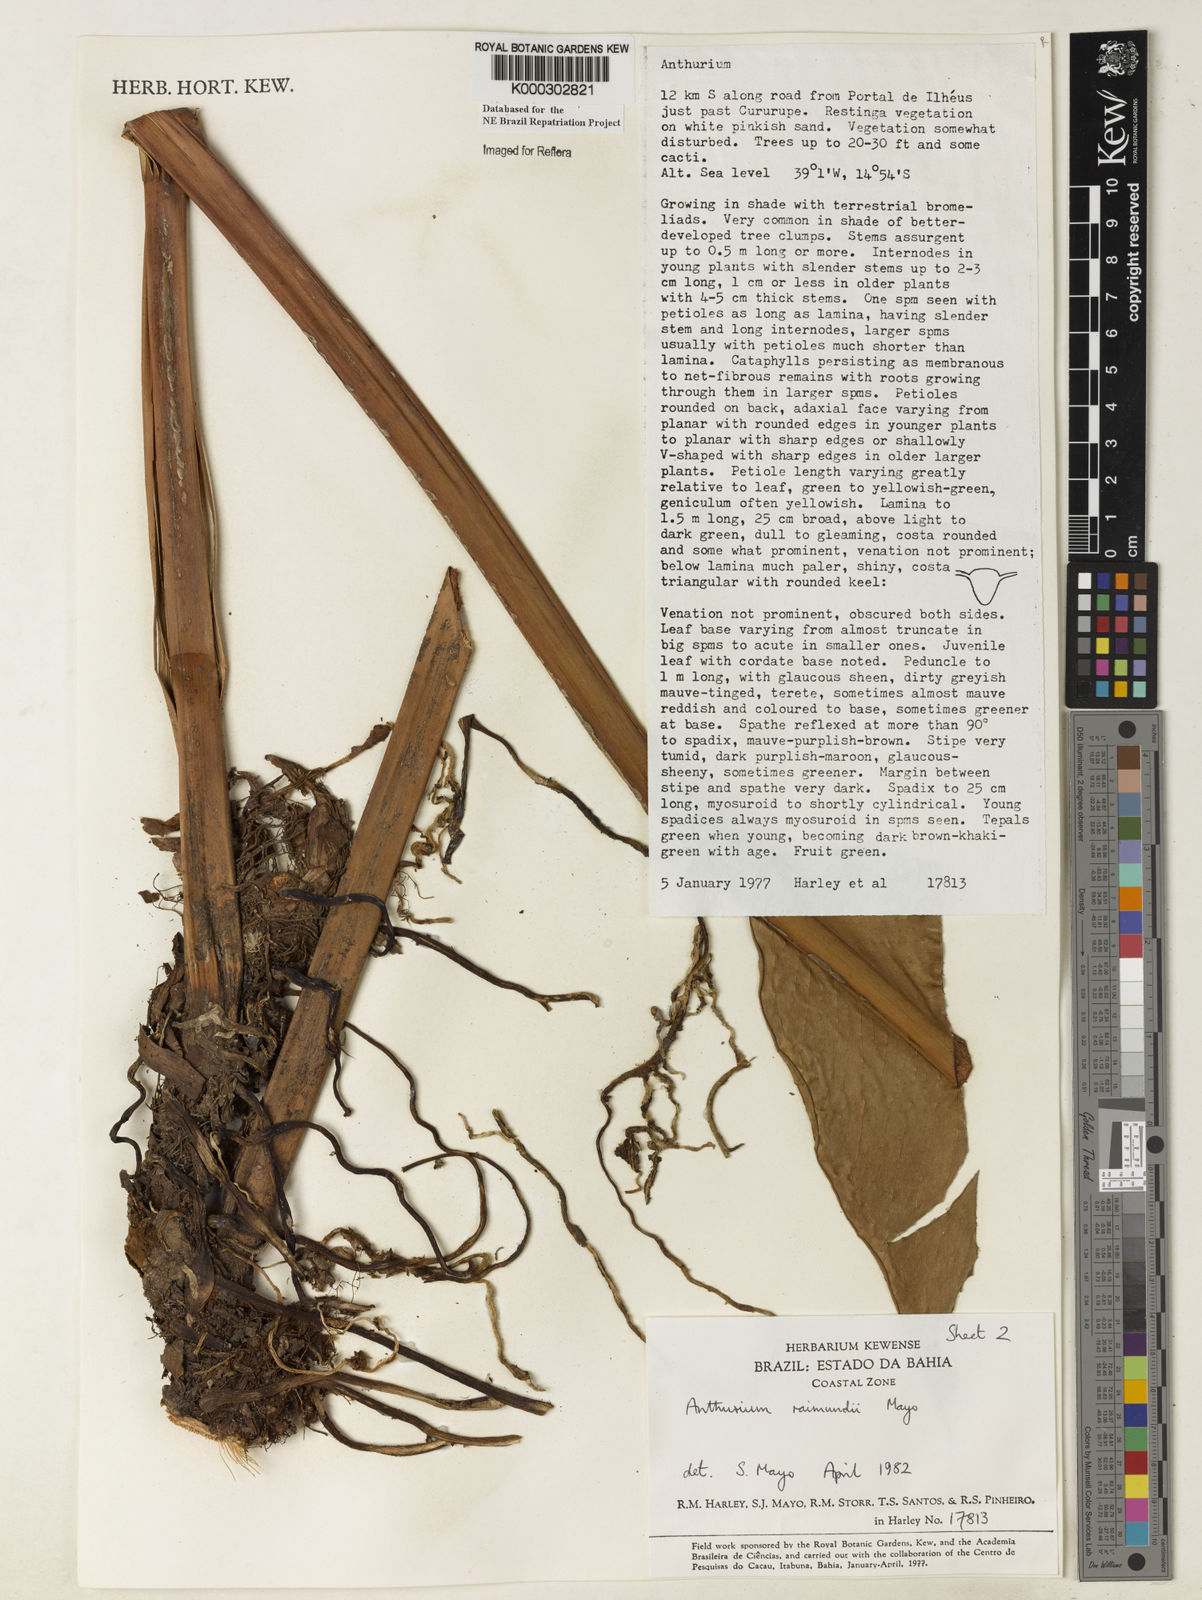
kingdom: Plantae
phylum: Tracheophyta
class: Liliopsida
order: Alismatales
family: Araceae
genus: Anthurium
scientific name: Anthurium raimundii
